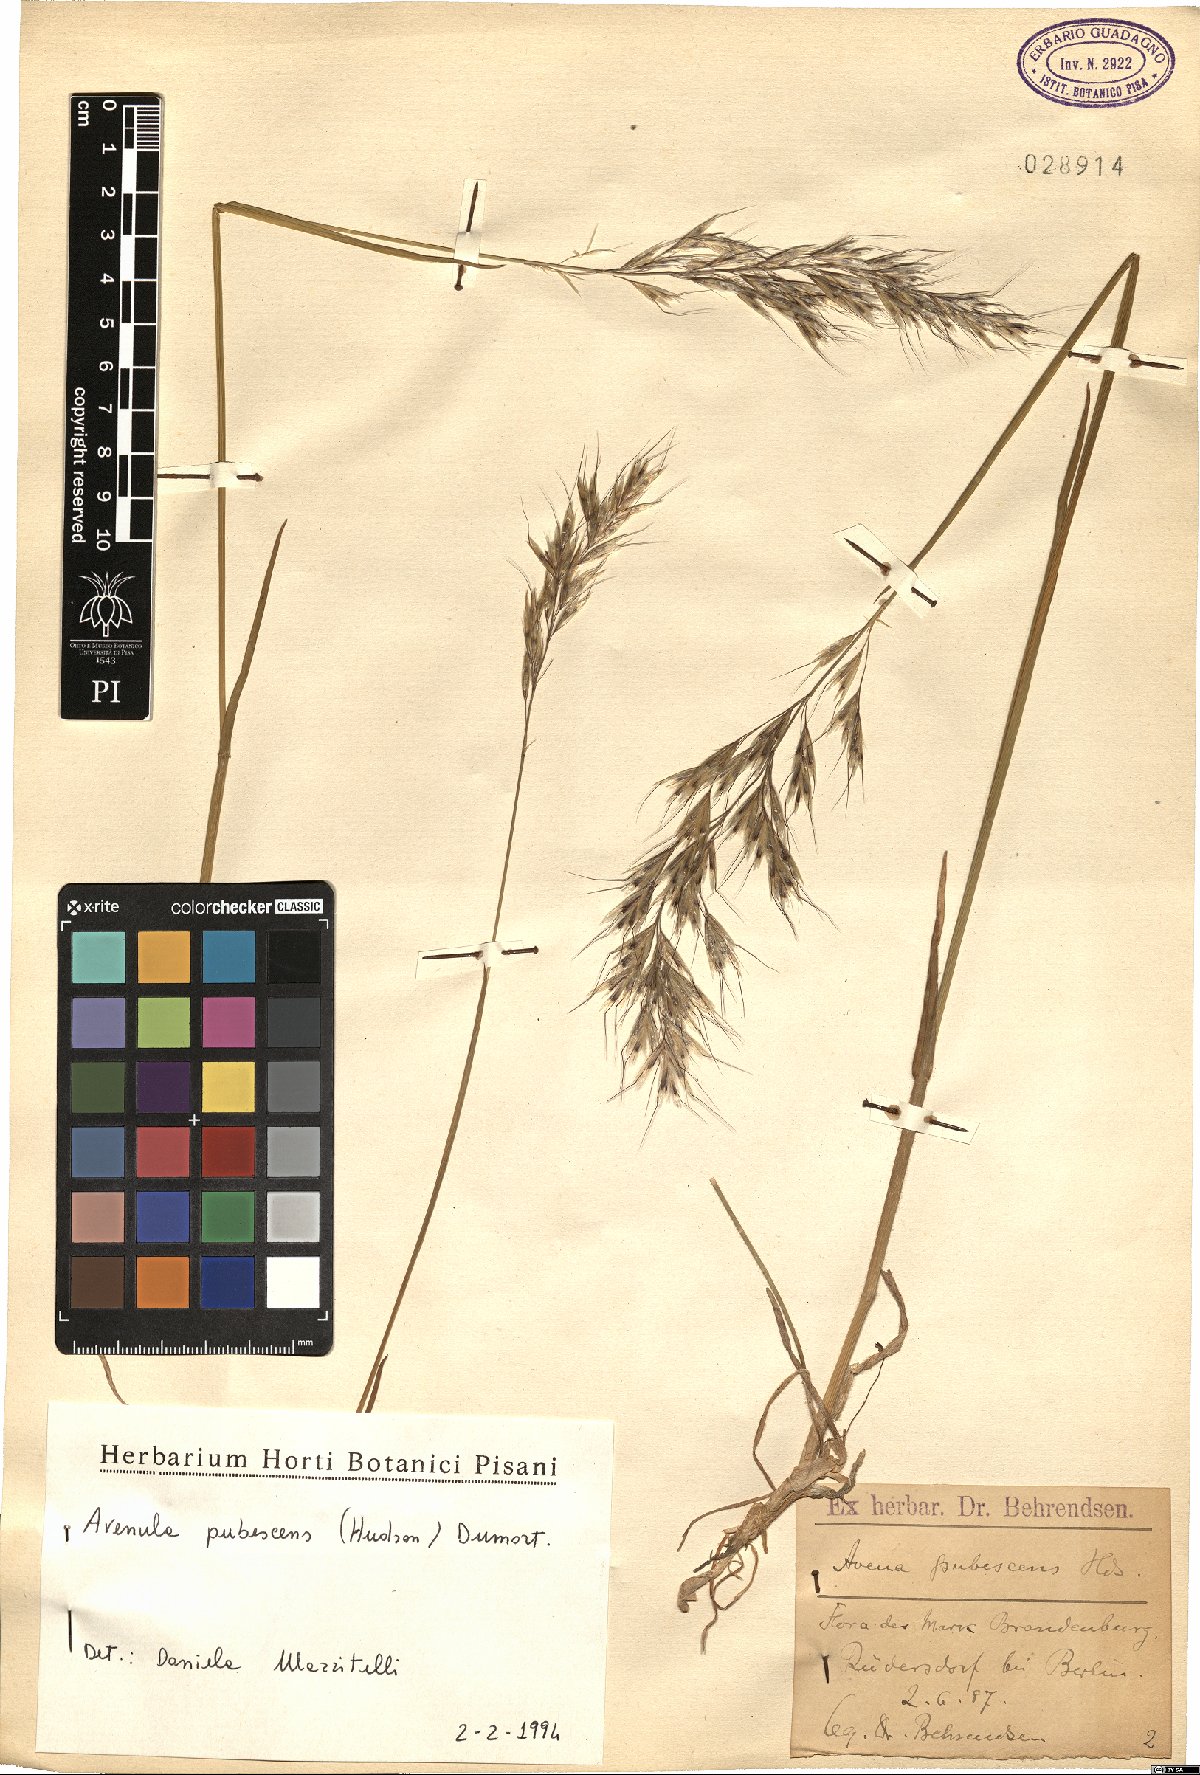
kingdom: Plantae
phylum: Tracheophyta
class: Liliopsida
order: Poales
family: Poaceae
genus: Avenula
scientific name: Avenula pubescens
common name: Downy alpine oatgrass
